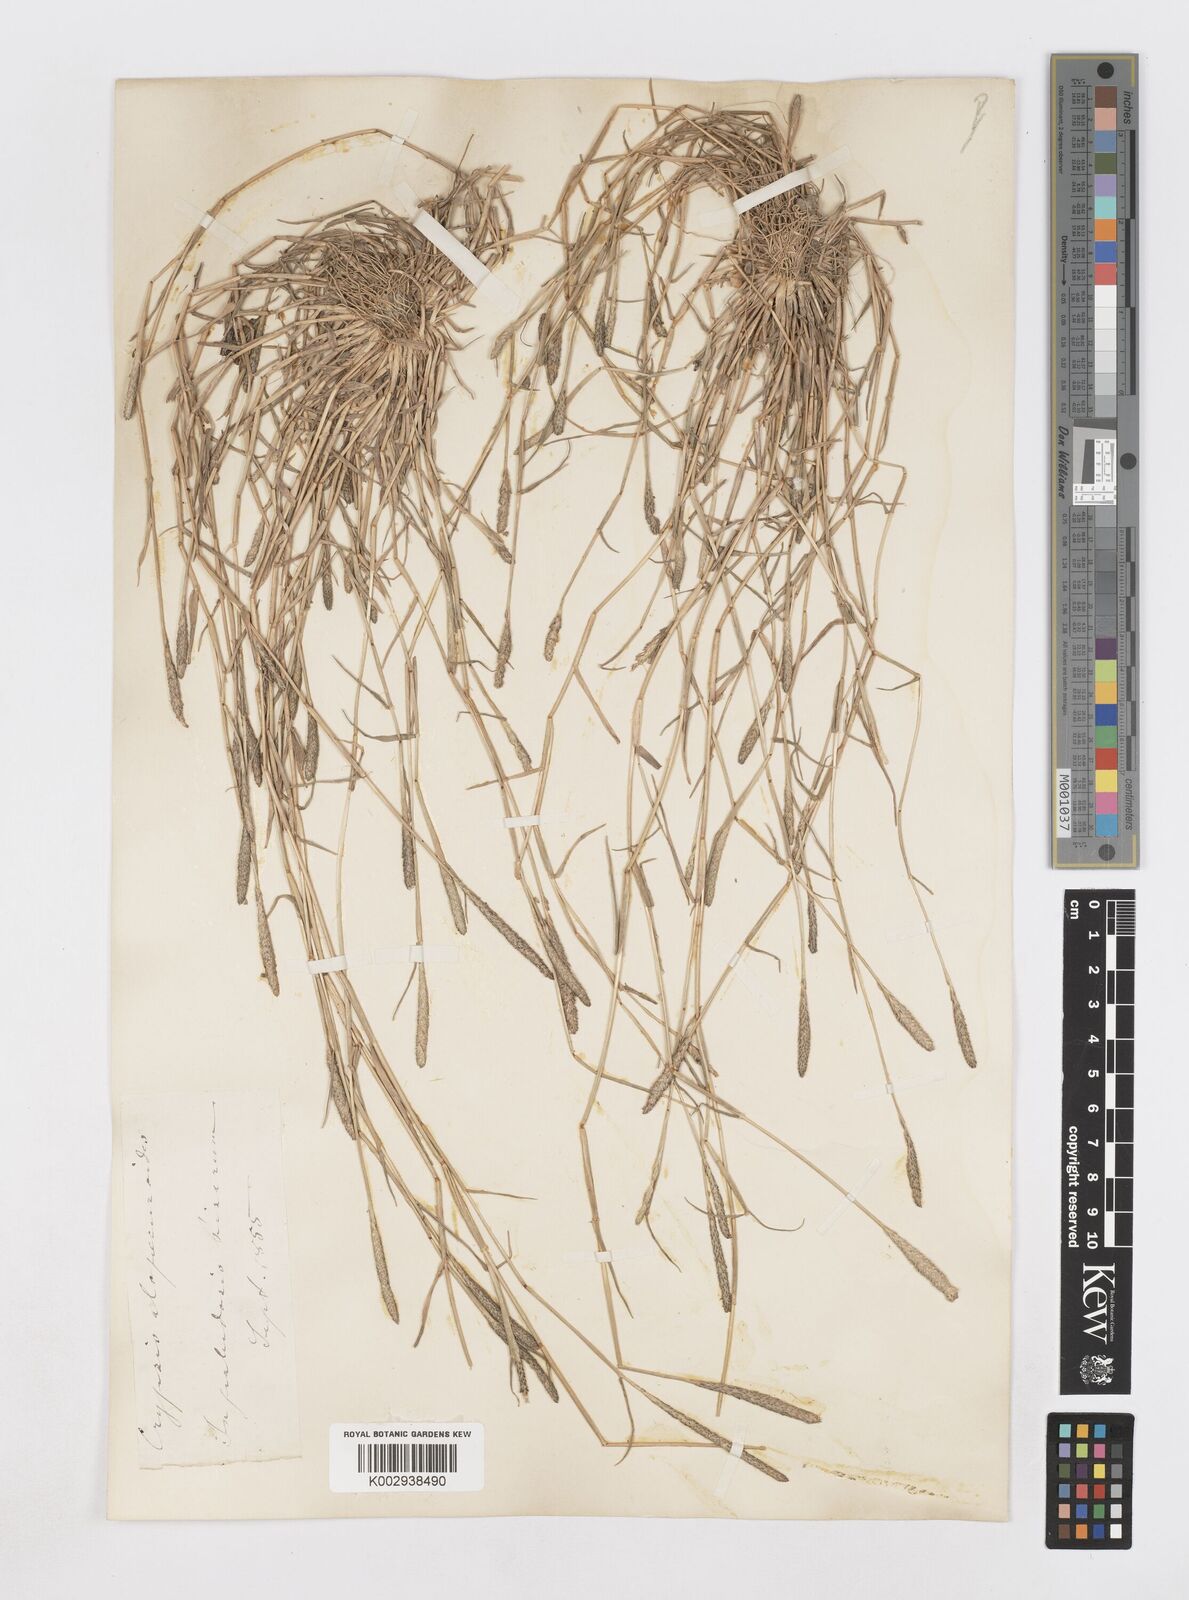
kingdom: Plantae
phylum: Tracheophyta
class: Liliopsida
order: Poales
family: Poaceae
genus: Sporobolus
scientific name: Sporobolus alopecuroides
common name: Foxtail pricklegrass
